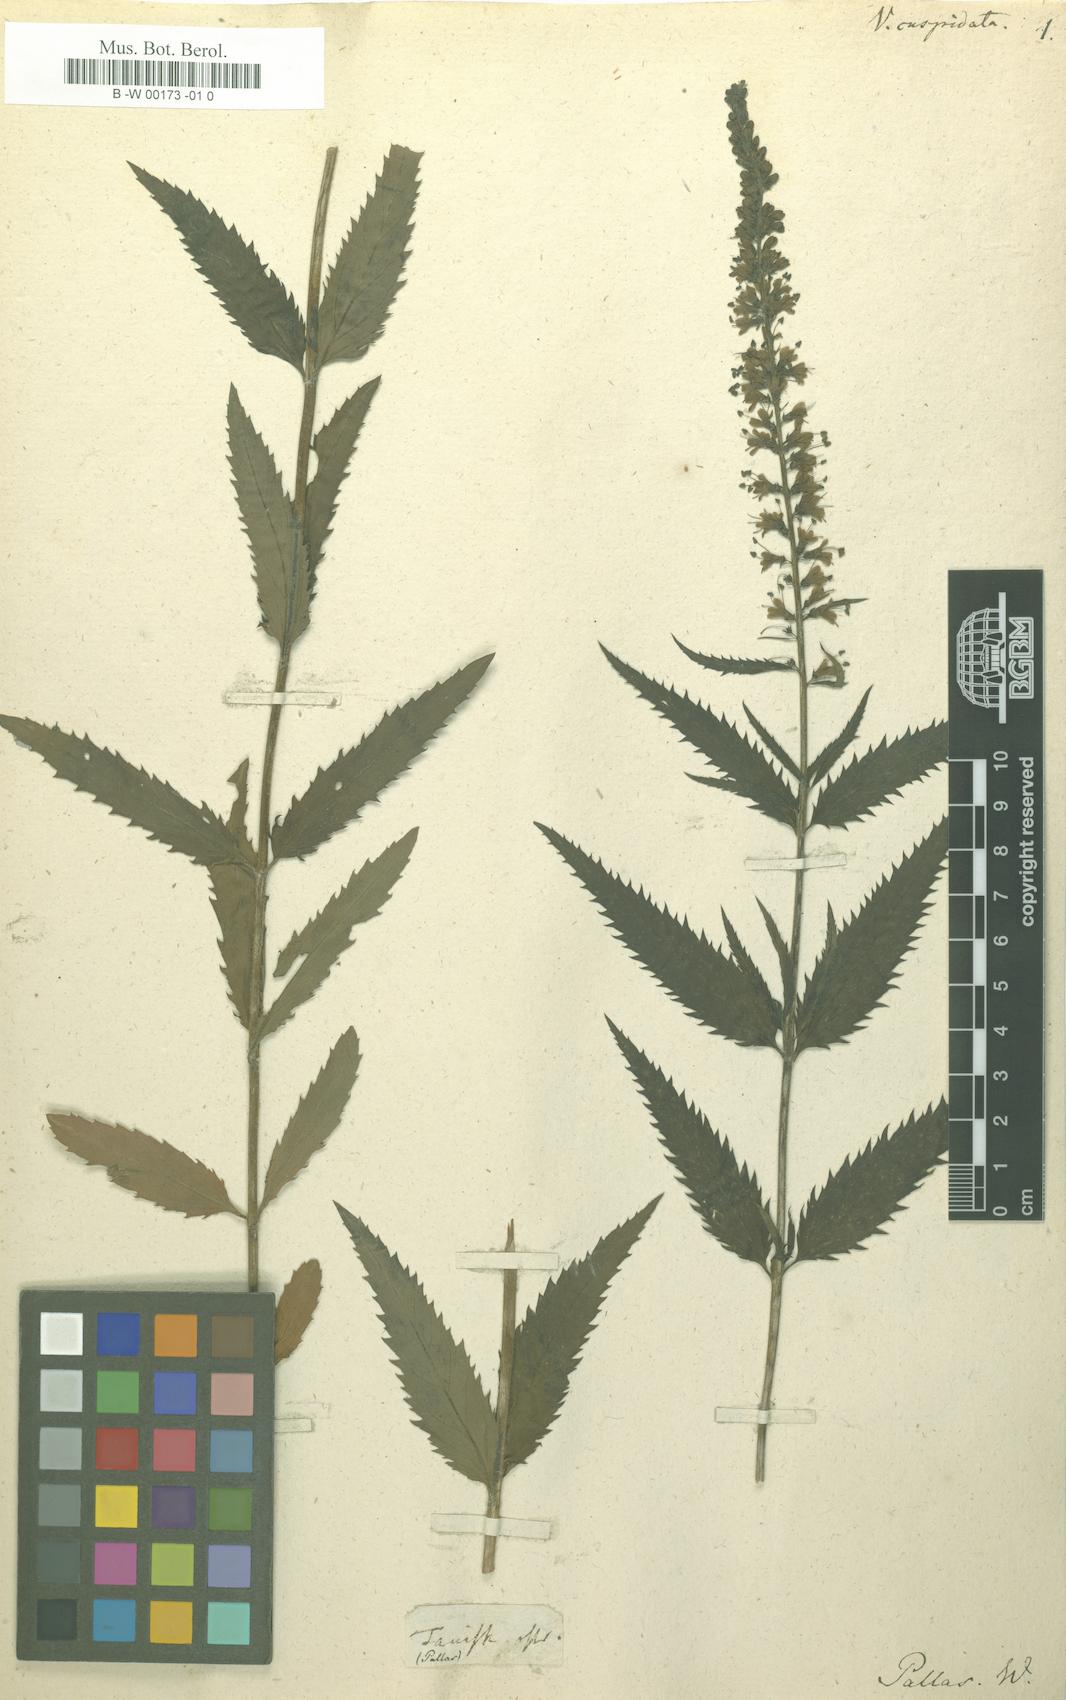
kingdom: Plantae
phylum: Tracheophyta
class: Magnoliopsida
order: Lamiales
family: Plantaginaceae
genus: Veronica
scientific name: Veronica maritima
